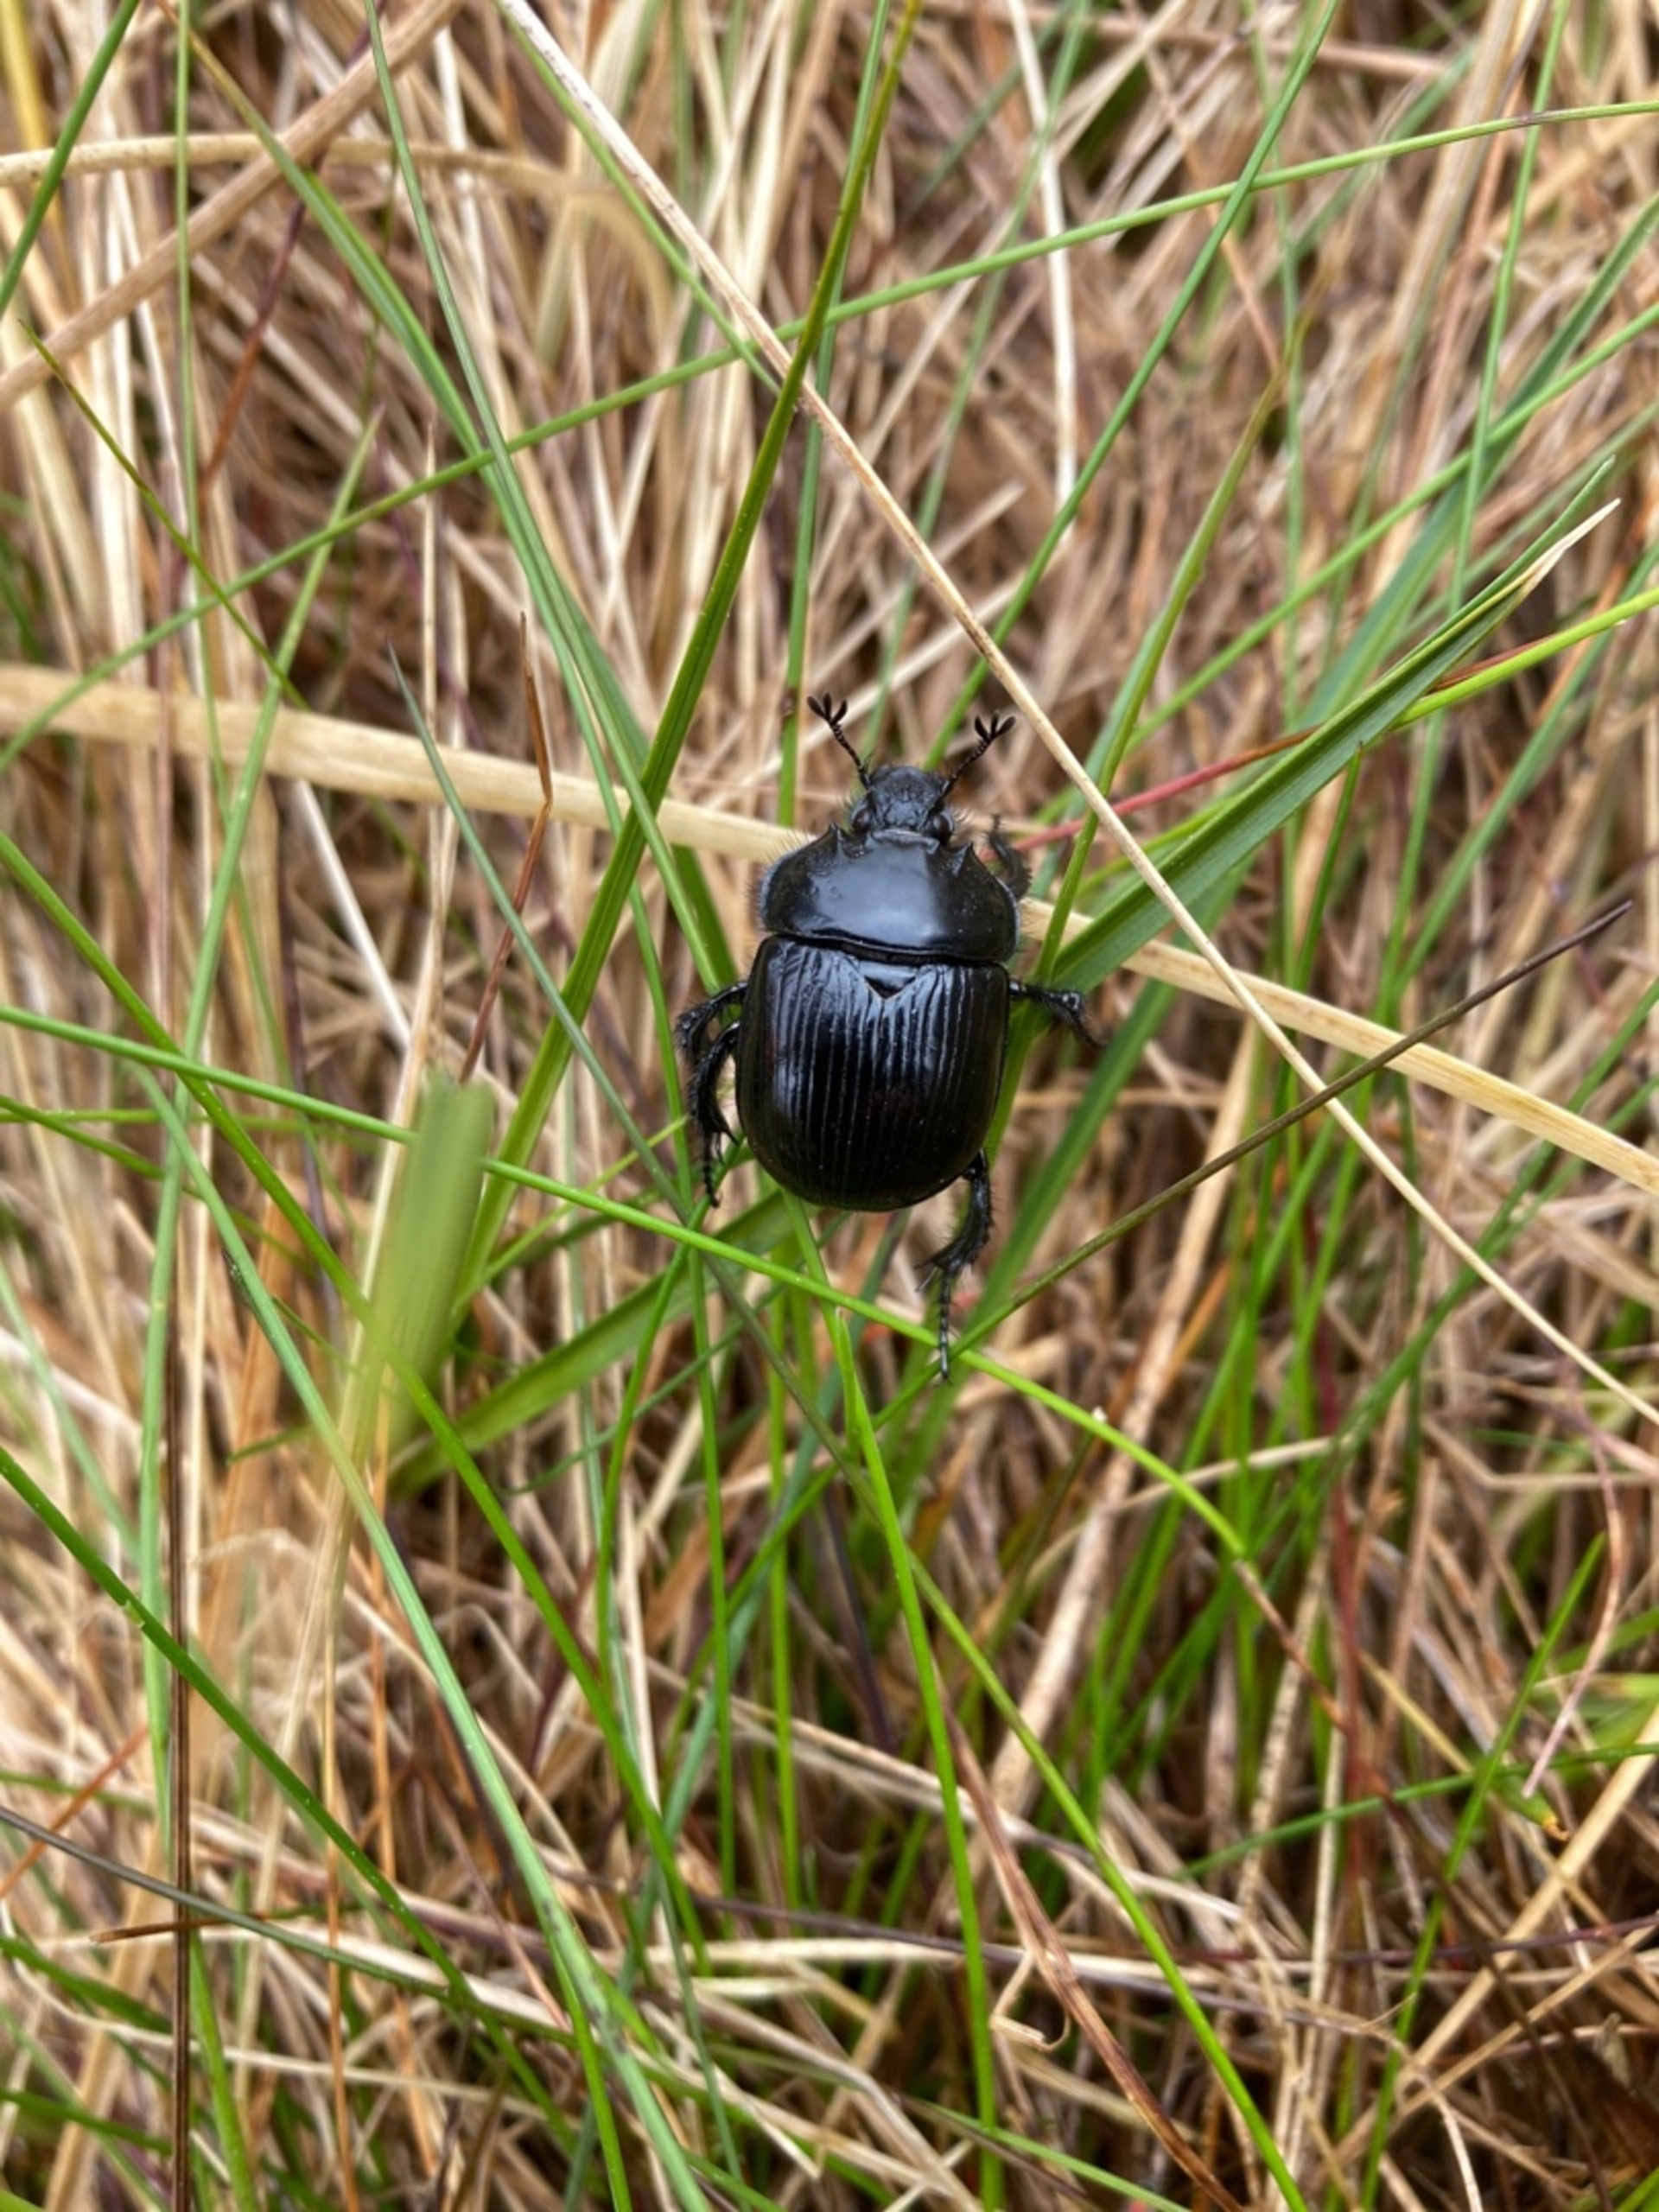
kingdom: Animalia
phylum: Arthropoda
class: Insecta
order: Coleoptera
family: Geotrupidae
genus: Typhaeus
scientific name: Typhaeus typhoeus
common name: Trehornet skarnbasse
